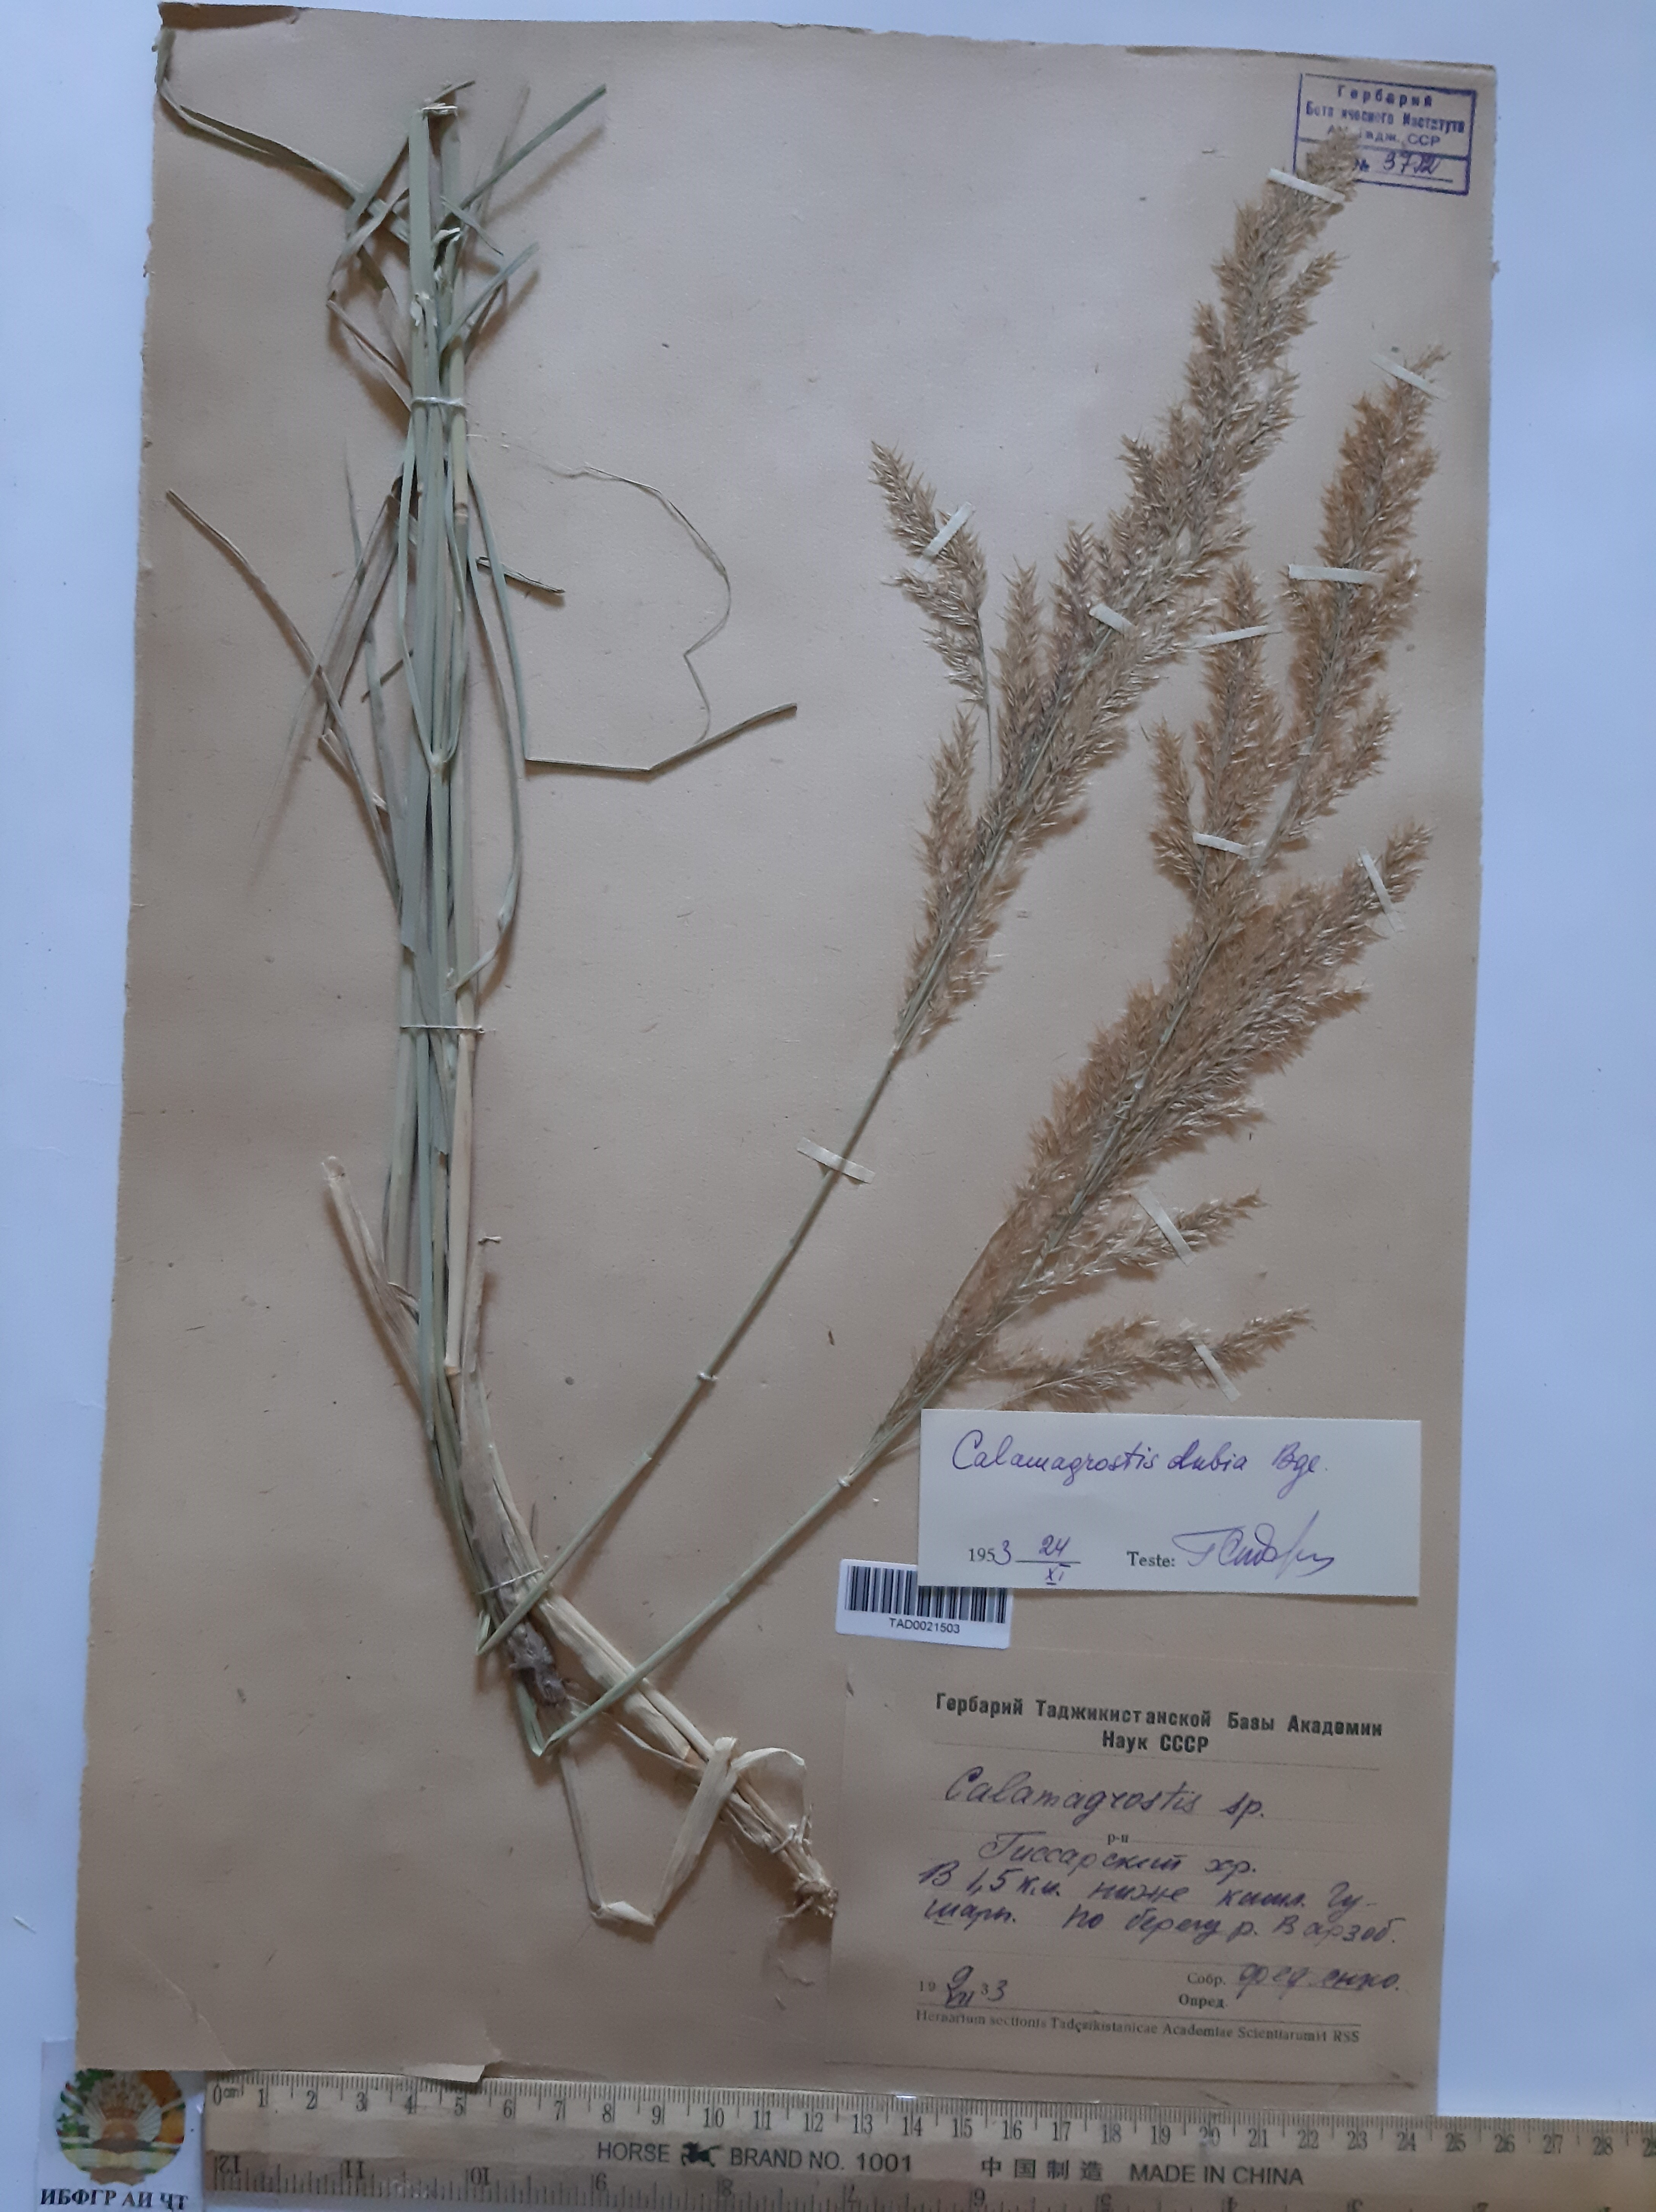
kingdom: Plantae
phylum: Tracheophyta
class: Liliopsida
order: Poales
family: Poaceae
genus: Calamagrostis
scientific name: Calamagrostis pseudophragmites
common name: Coastal small-reed
